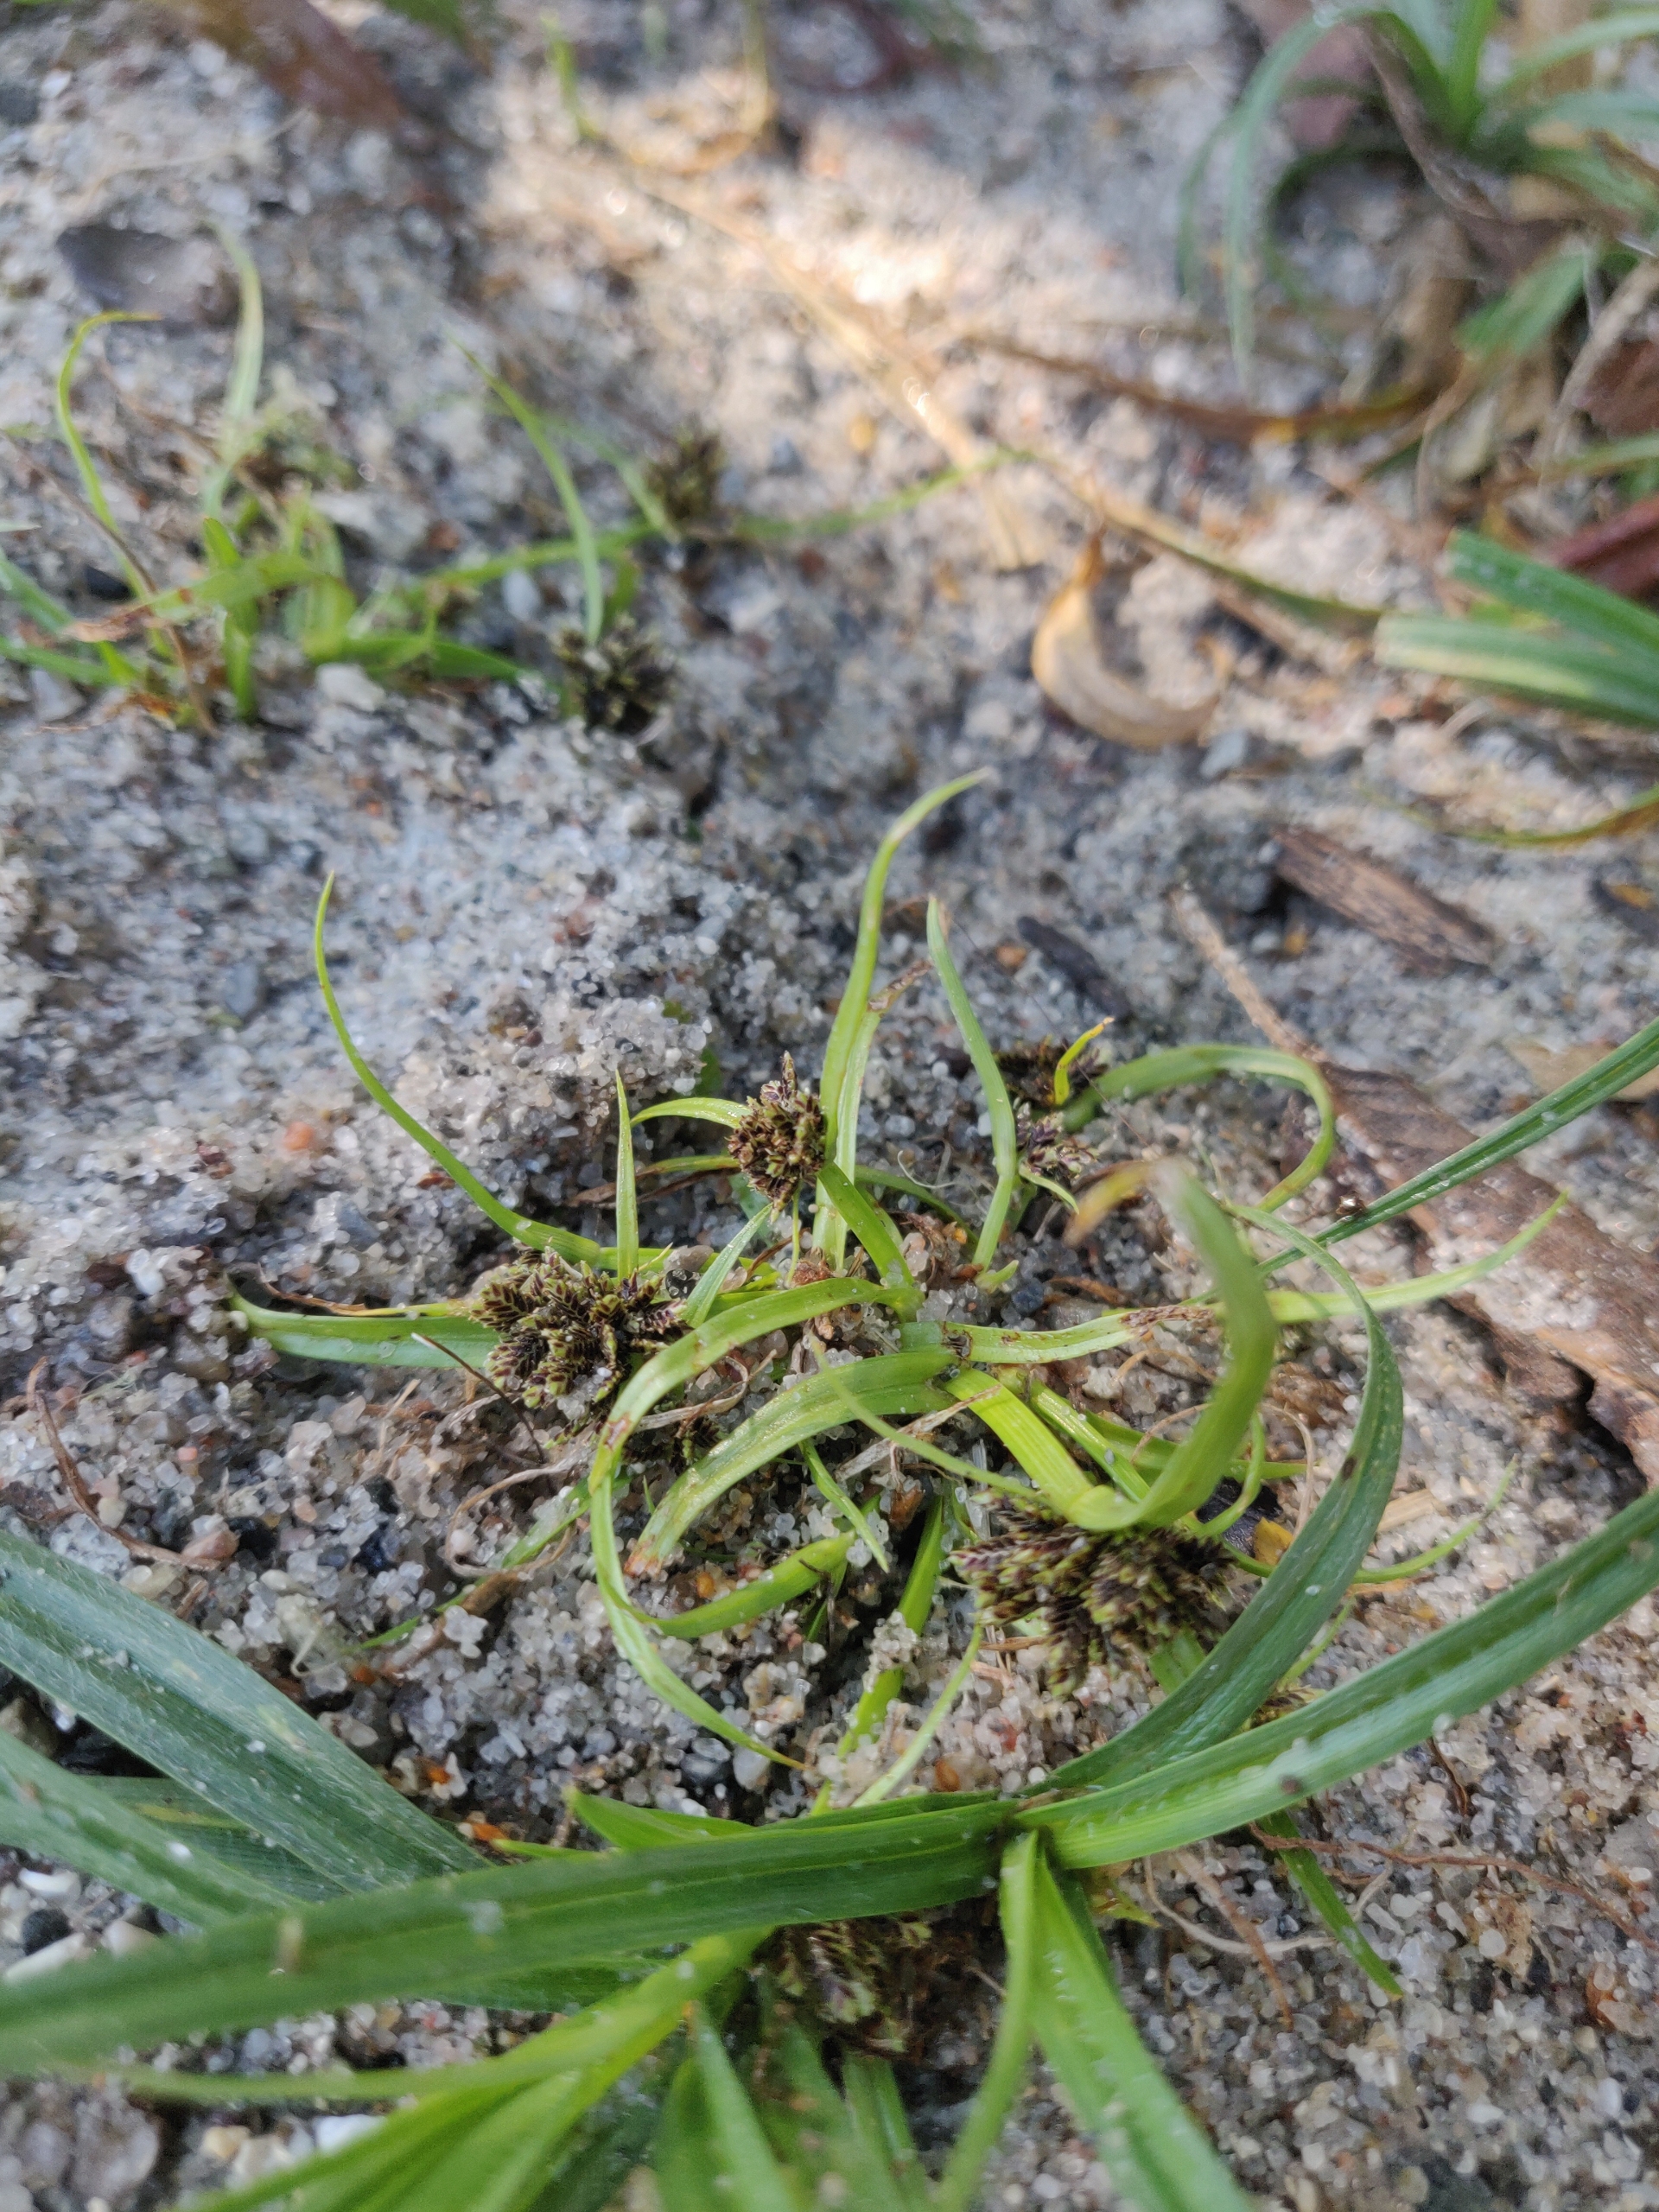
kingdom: Plantae
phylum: Tracheophyta
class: Liliopsida
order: Poales
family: Cyperaceae
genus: Cyperus
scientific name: Cyperus fuscus
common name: Brun fladaks
